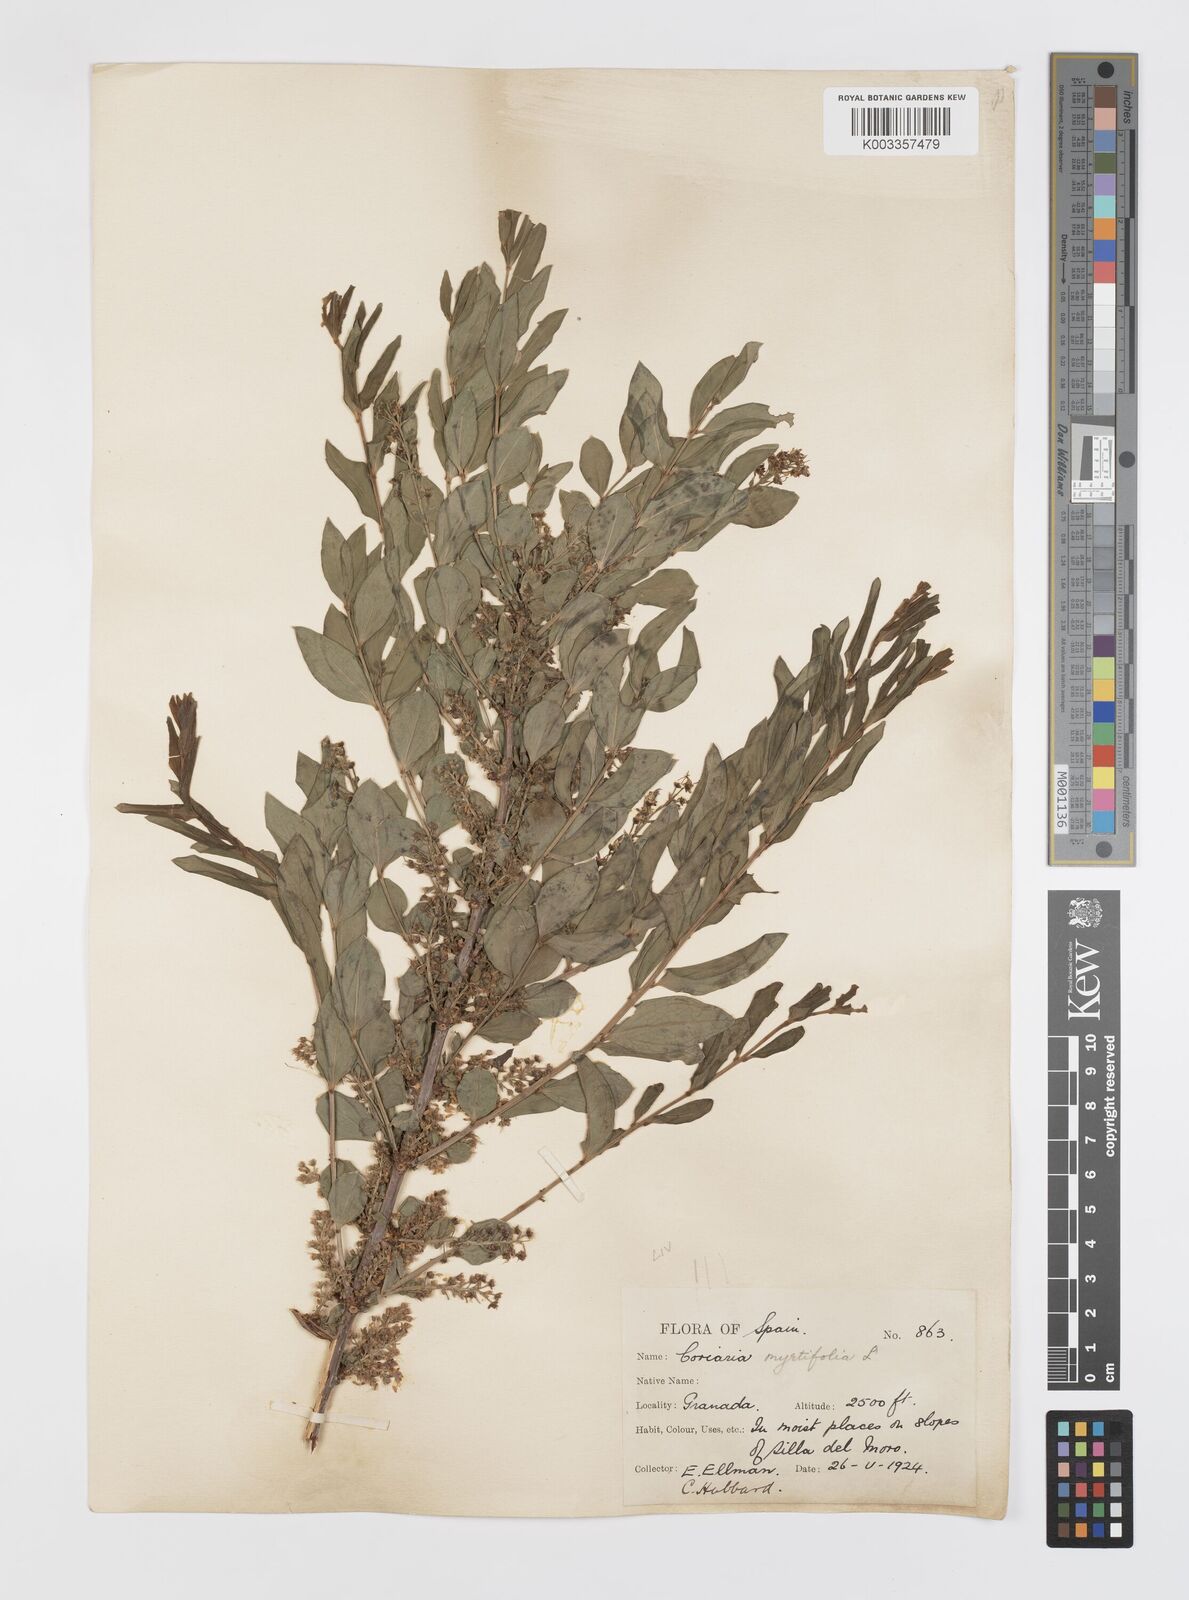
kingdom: Plantae
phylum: Tracheophyta
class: Magnoliopsida
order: Cucurbitales
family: Coriariaceae
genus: Coriaria
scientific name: Coriaria myrtifolia
